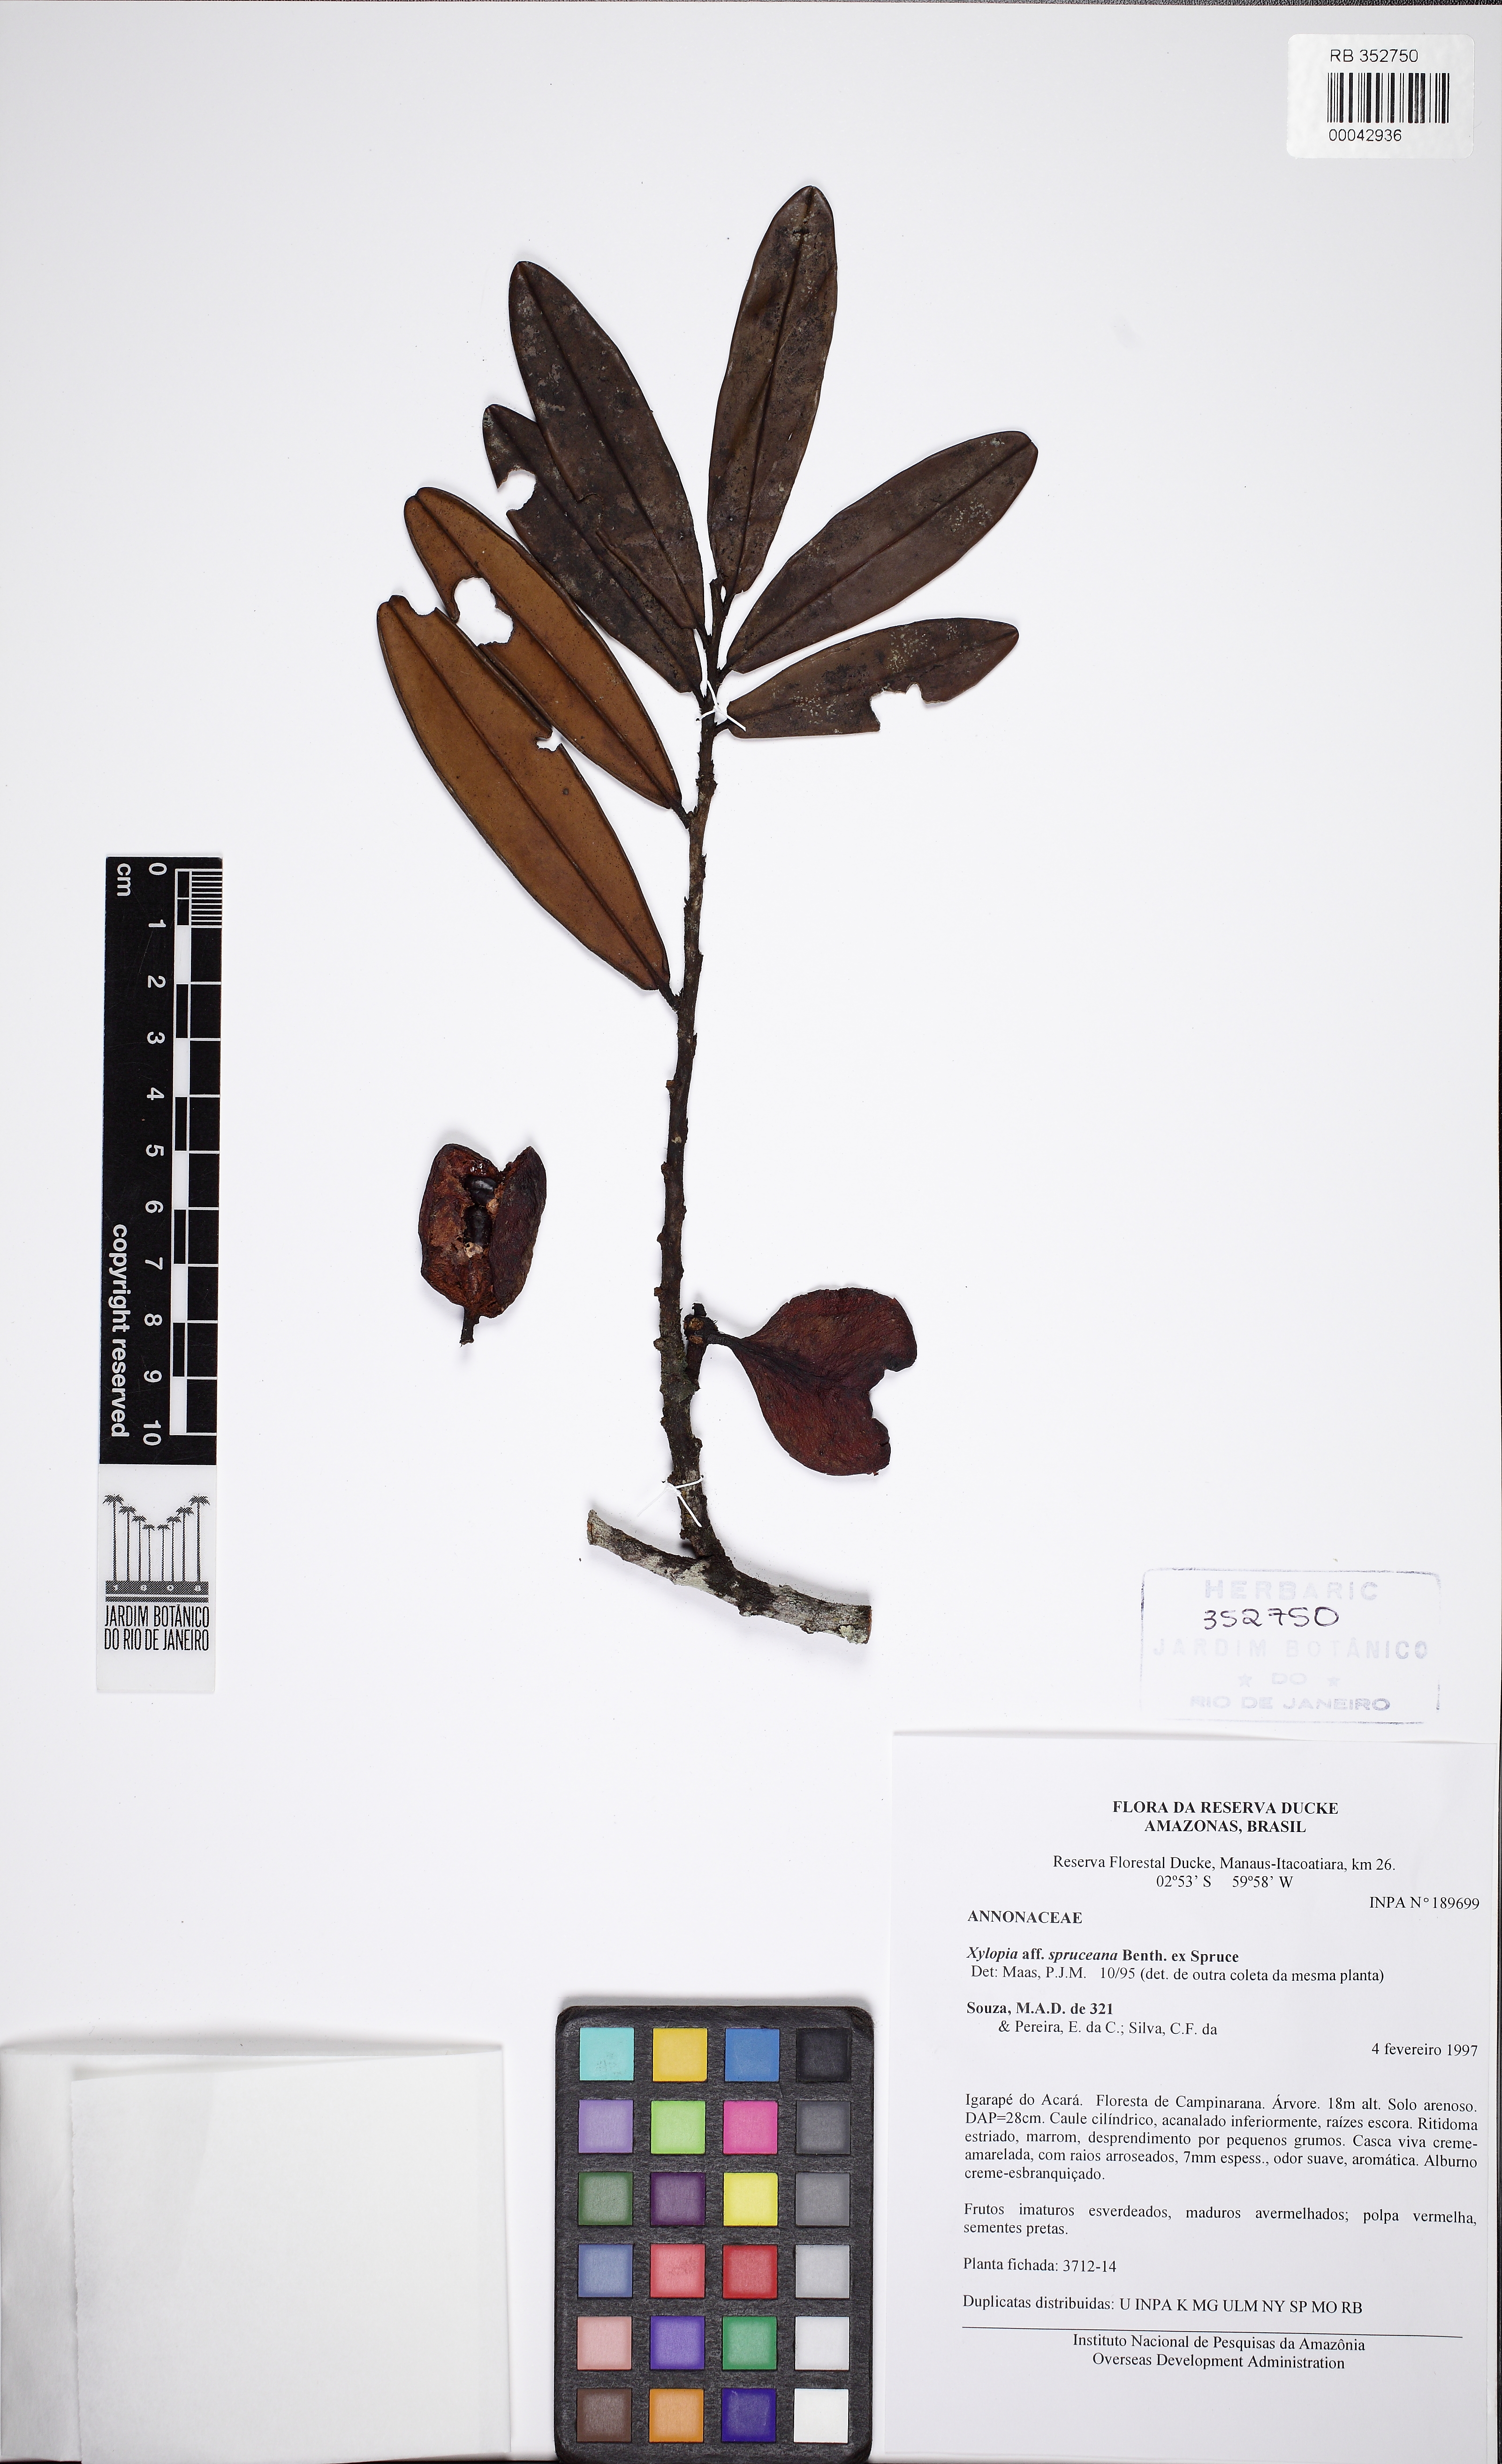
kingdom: Plantae
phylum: Tracheophyta
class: Magnoliopsida
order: Magnoliales
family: Annonaceae
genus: Xylopia
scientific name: Xylopia spruceana
